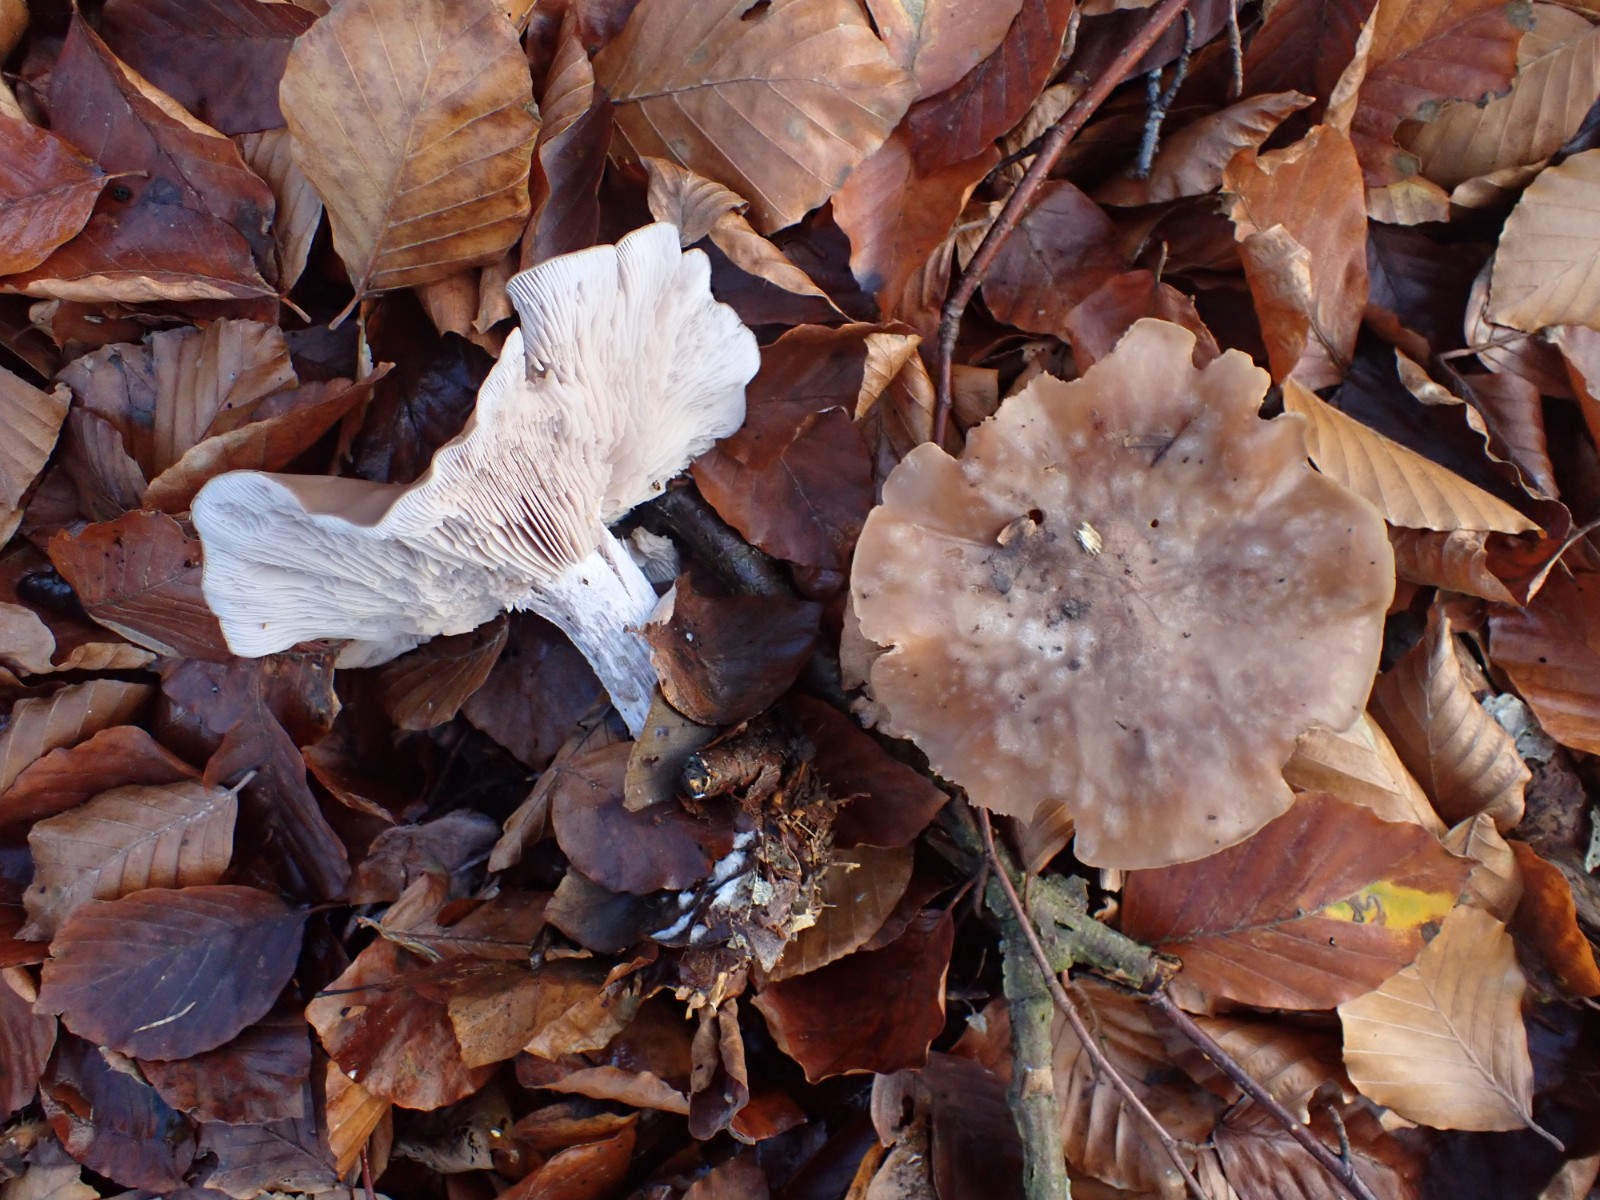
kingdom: Fungi
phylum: Basidiomycota
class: Agaricomycetes
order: Agaricales
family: Tricholomataceae
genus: Lepista
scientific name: Lepista nuda
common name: violet hekseringshat
